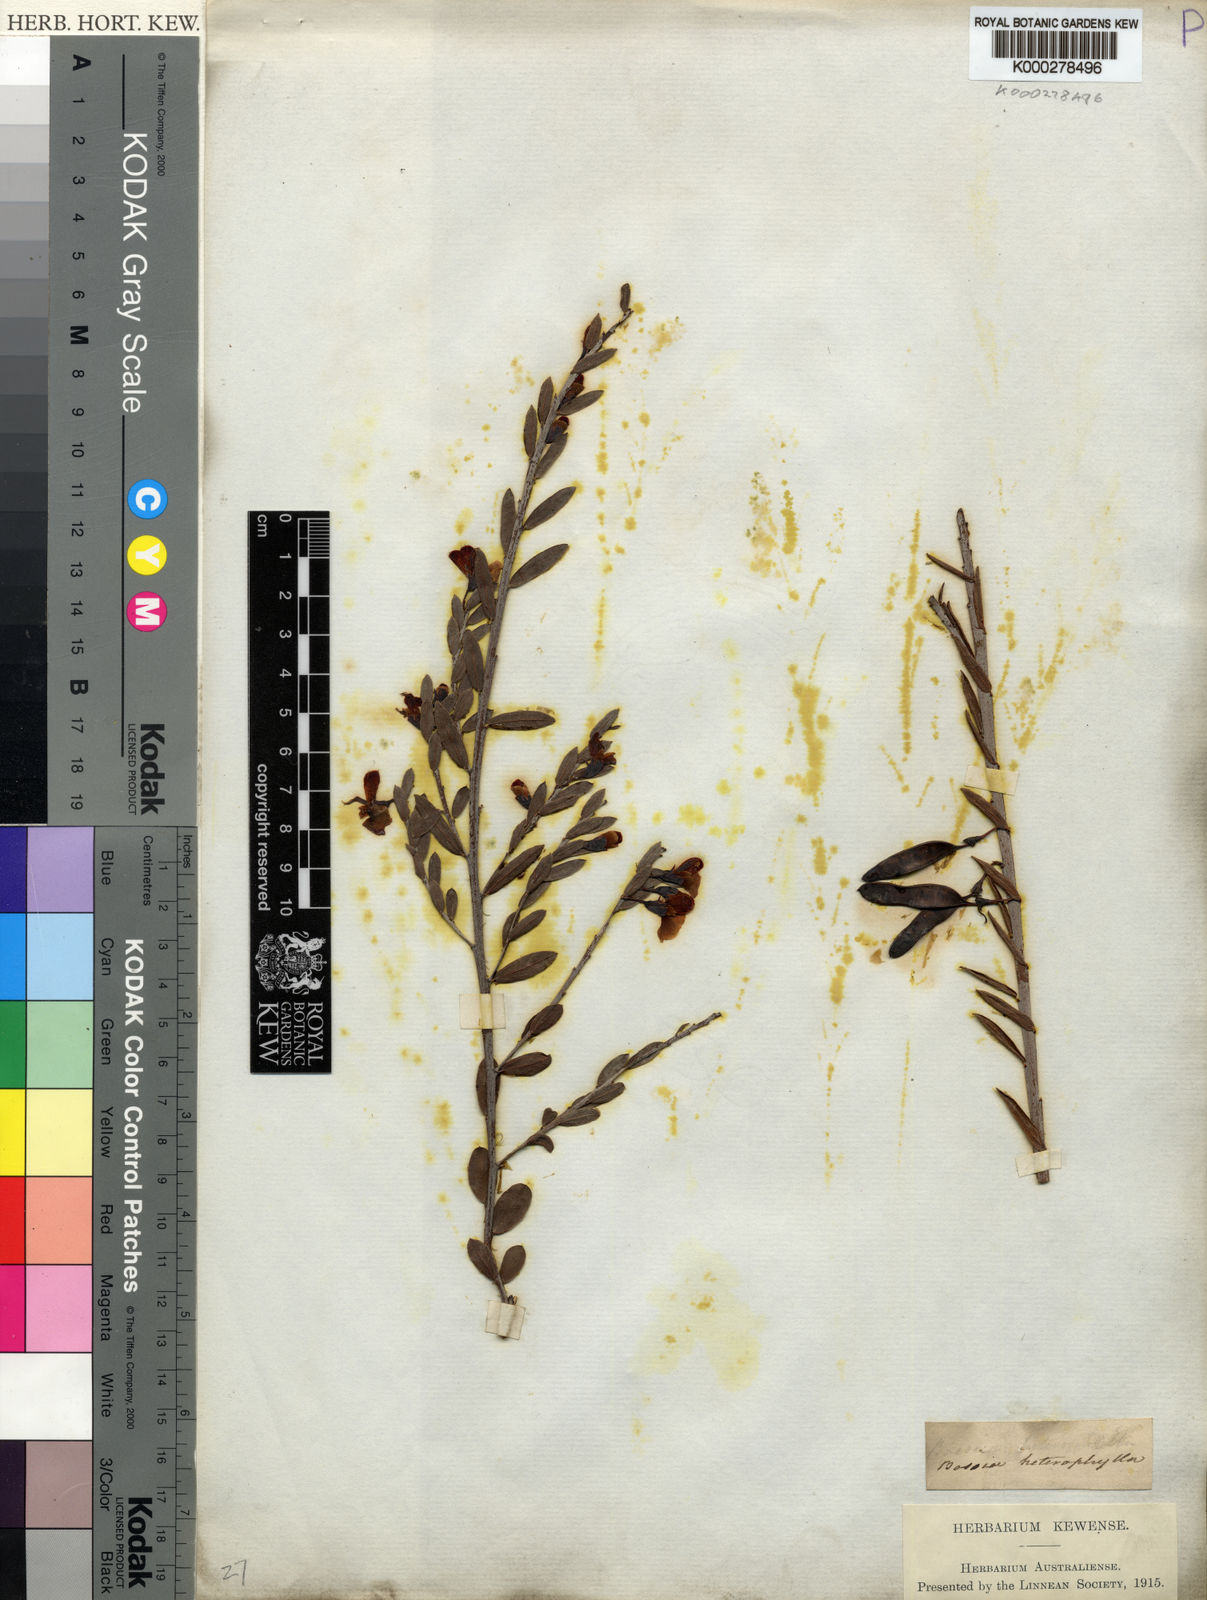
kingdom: Plantae
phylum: Tracheophyta
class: Magnoliopsida
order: Fabales
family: Fabaceae
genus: Bossiaea
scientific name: Bossiaea heterophylla
